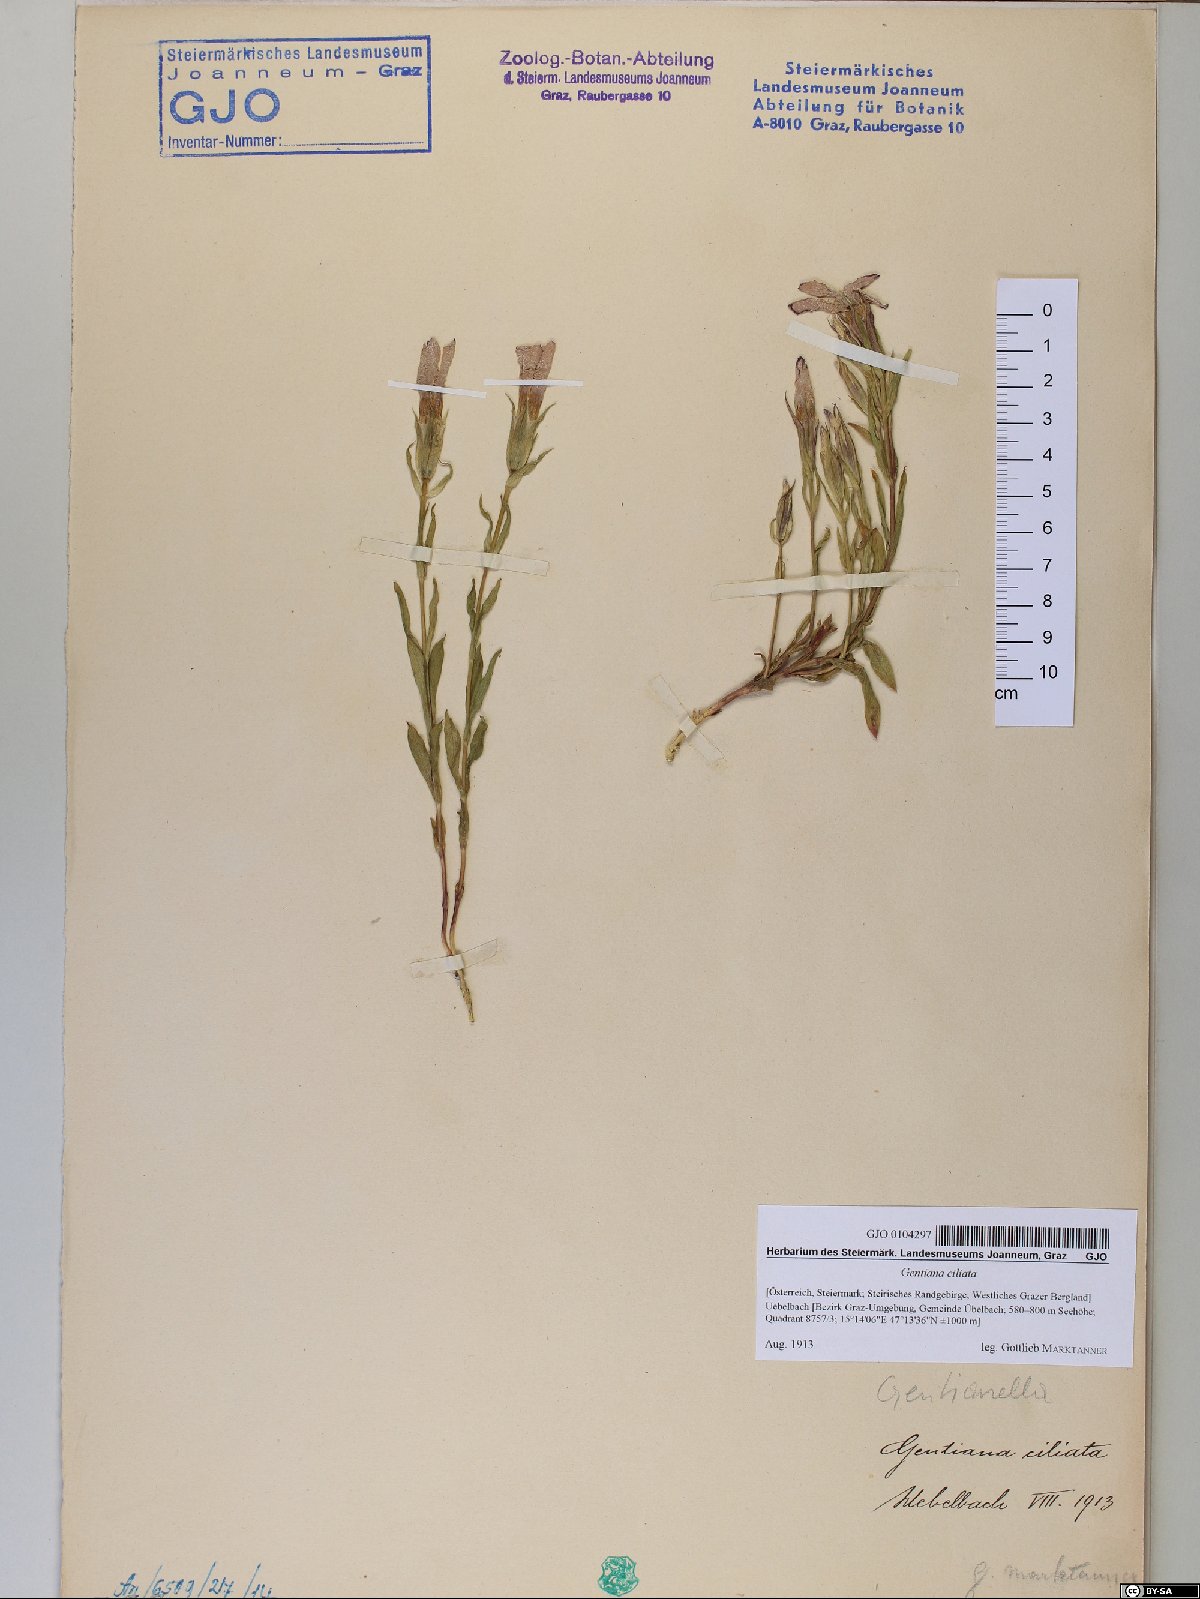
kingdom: Plantae
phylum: Tracheophyta
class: Magnoliopsida
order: Gentianales
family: Gentianaceae
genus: Gentianopsis
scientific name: Gentianopsis ciliata
